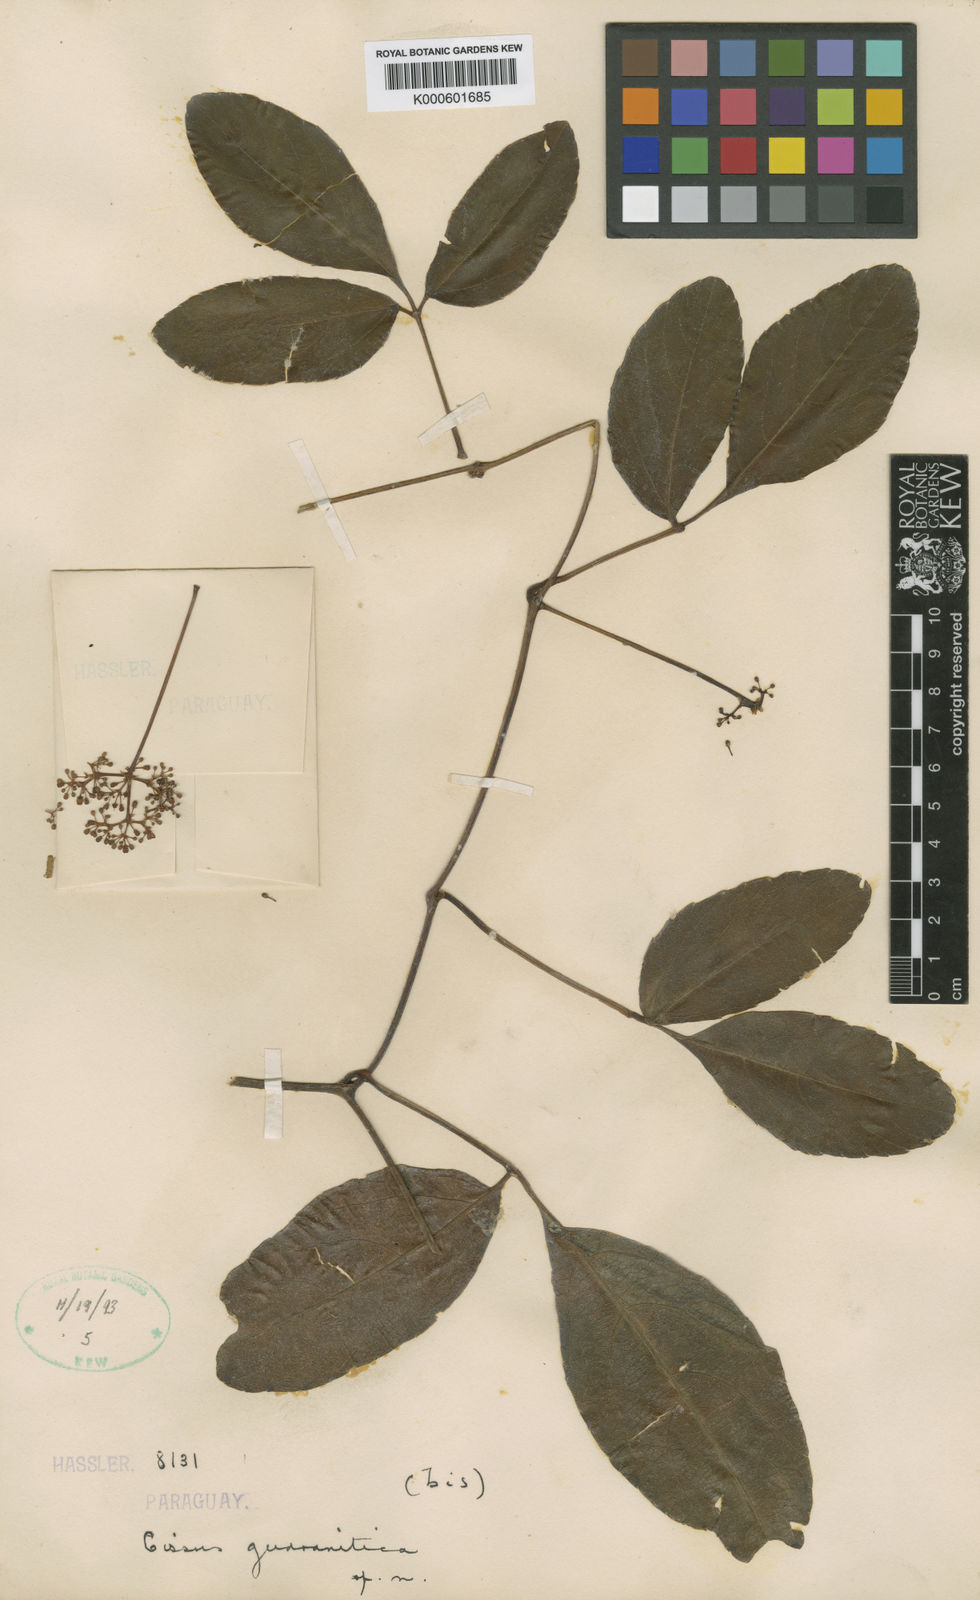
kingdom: Plantae
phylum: Tracheophyta
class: Magnoliopsida
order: Vitales
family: Vitaceae
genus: Cissus
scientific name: Cissus erosa
